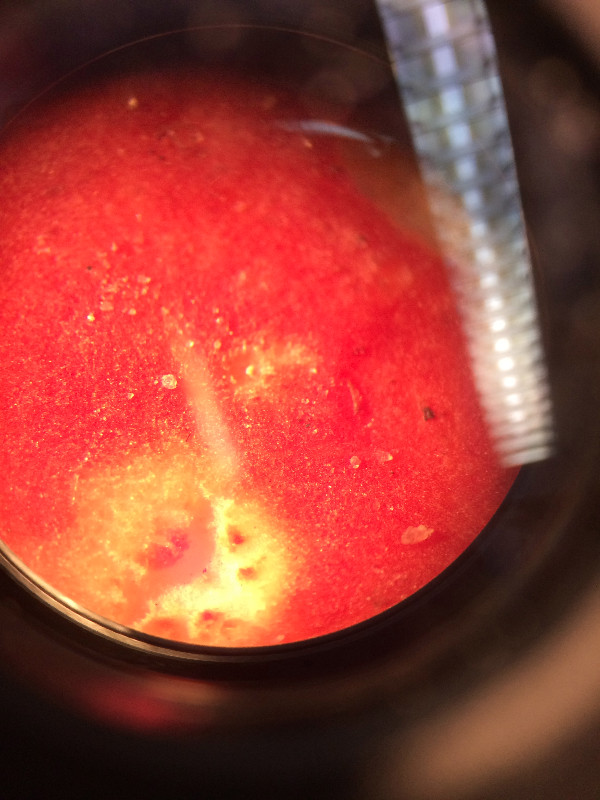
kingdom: Fungi
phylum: Basidiomycota
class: Agaricomycetes
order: Russulales
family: Russulaceae
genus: Russula
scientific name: Russula
